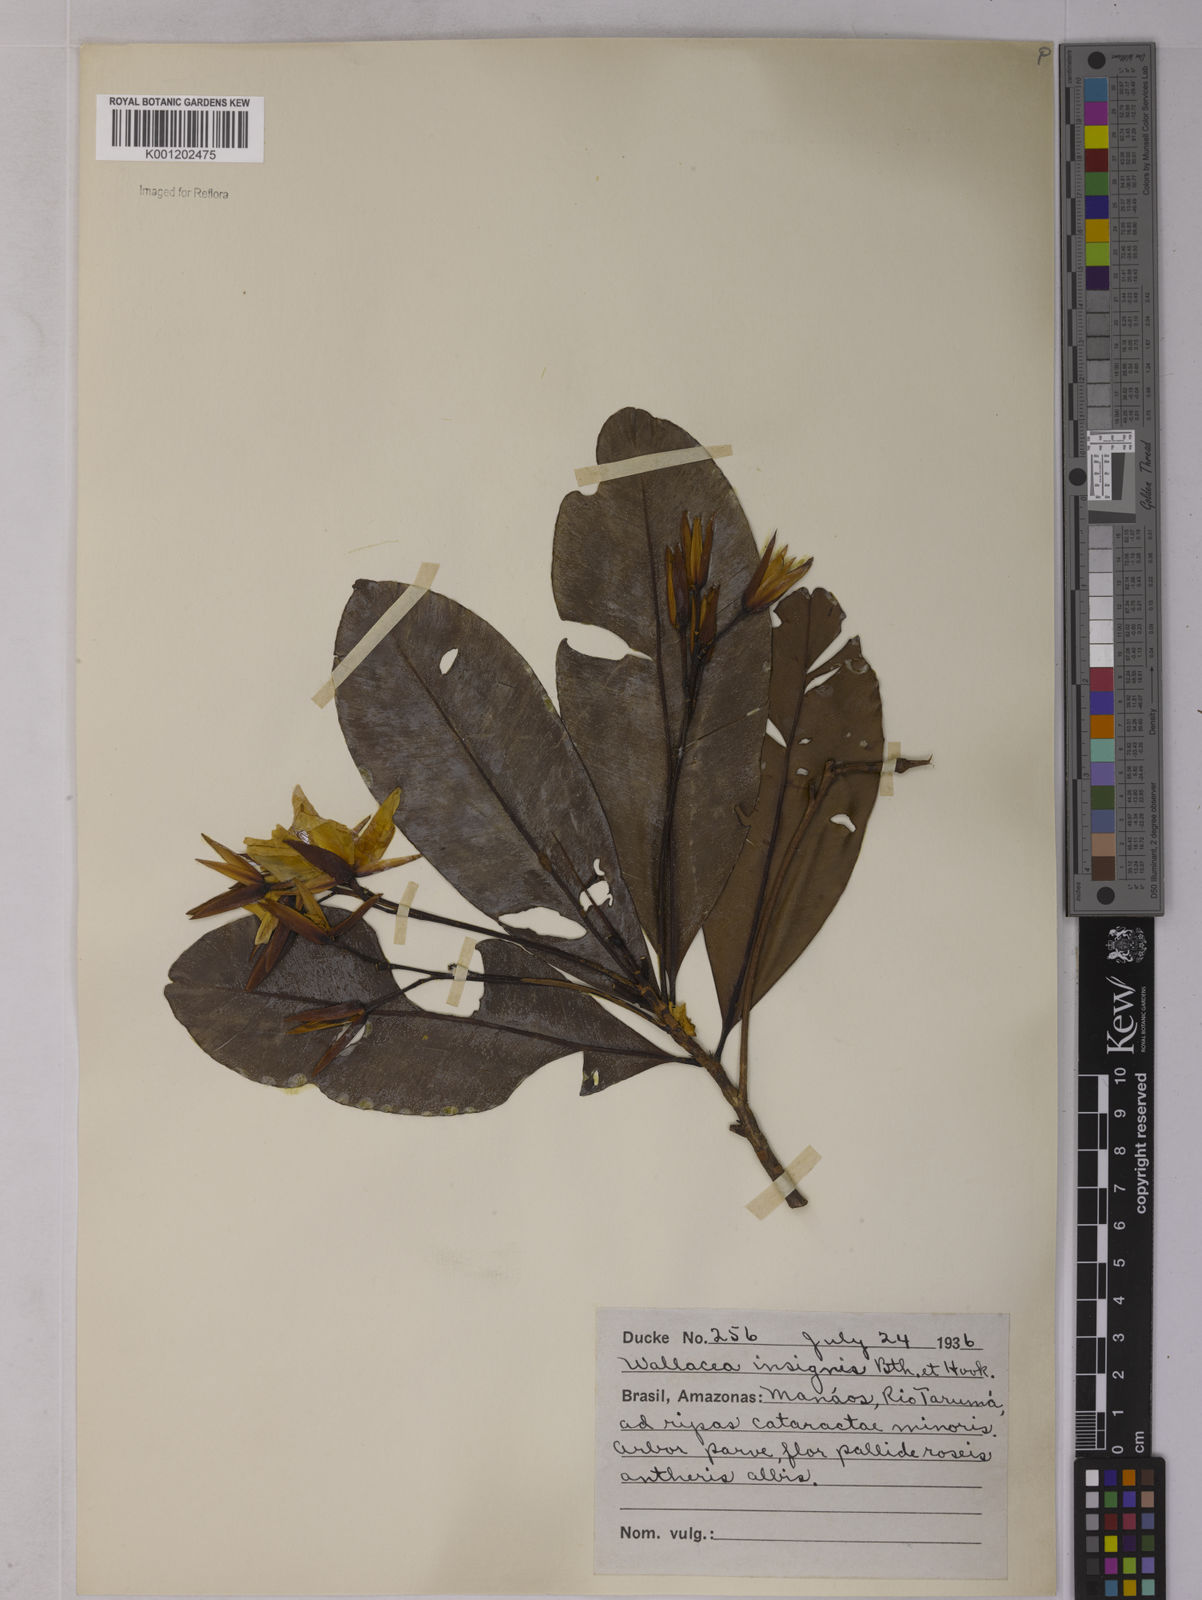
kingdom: Plantae
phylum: Tracheophyta
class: Magnoliopsida
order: Malpighiales
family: Ochnaceae
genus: Wallacea
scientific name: Wallacea insignis
